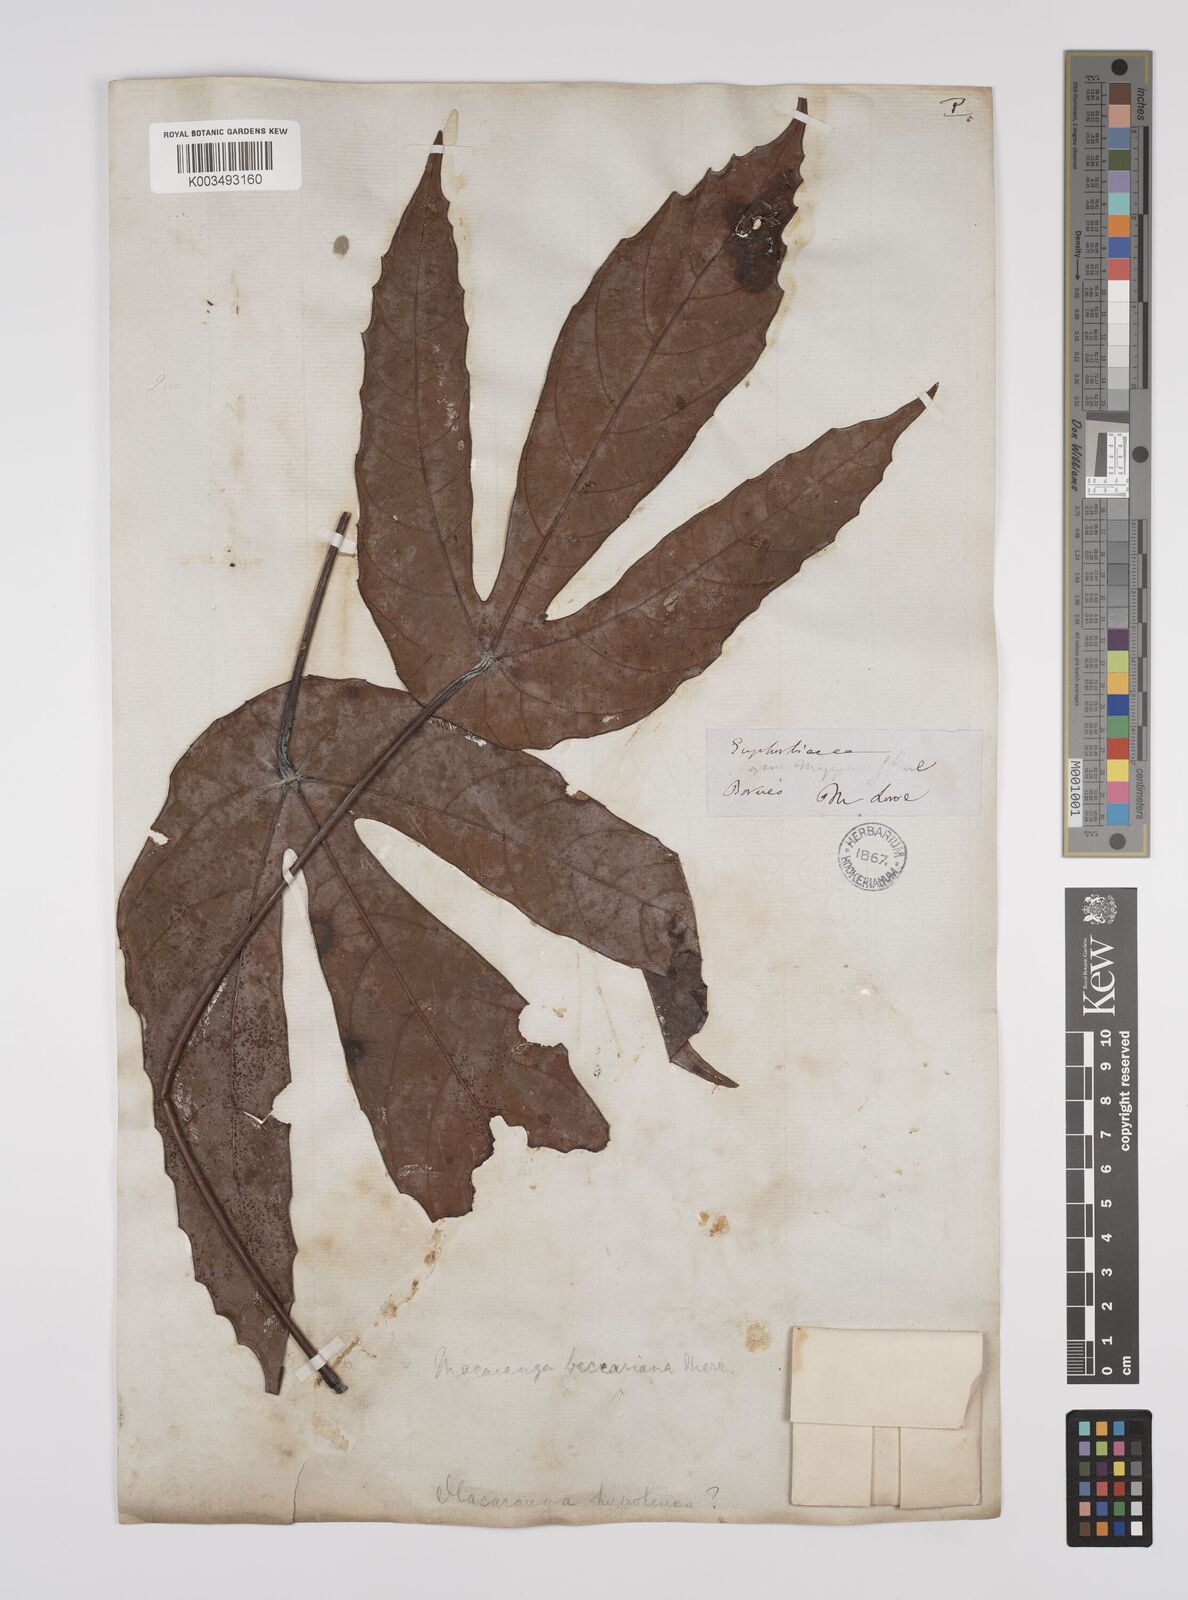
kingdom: Plantae
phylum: Tracheophyta
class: Magnoliopsida
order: Malpighiales
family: Euphorbiaceae
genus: Macaranga
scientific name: Macaranga beccariana
